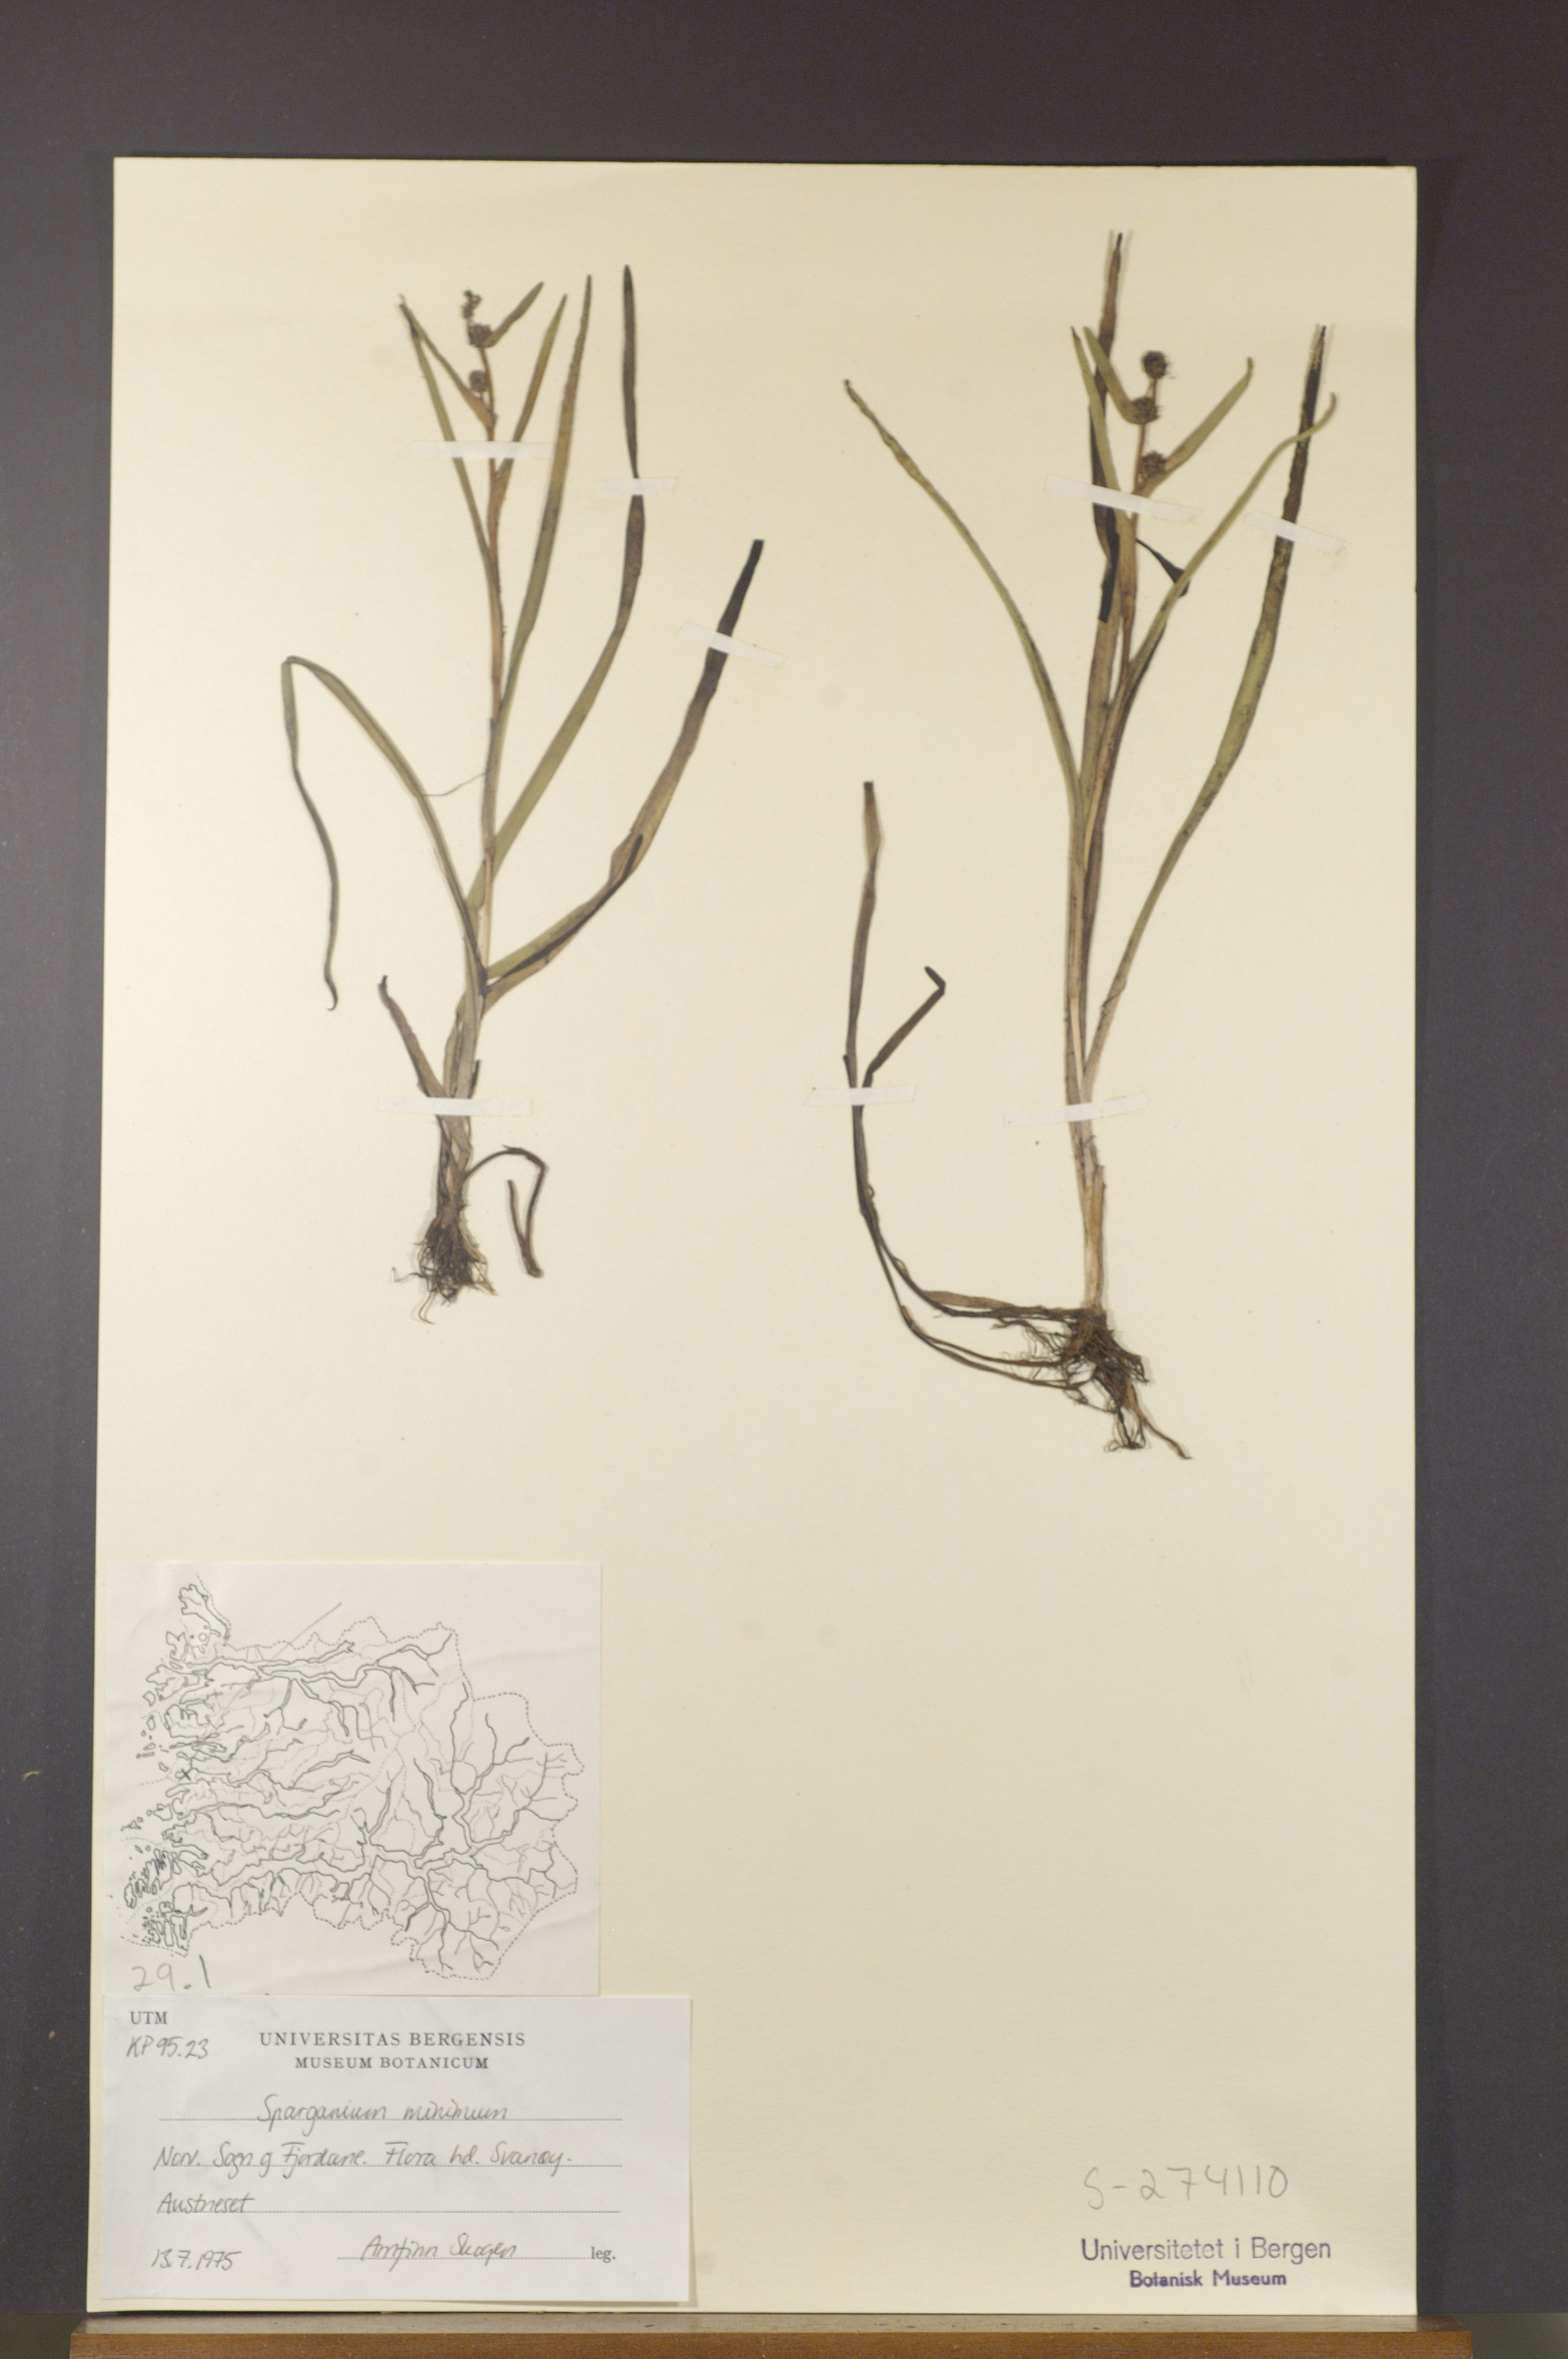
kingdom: Plantae
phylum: Tracheophyta
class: Liliopsida
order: Poales
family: Typhaceae
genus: Sparganium
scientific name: Sparganium natans
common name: Least bur-reed
